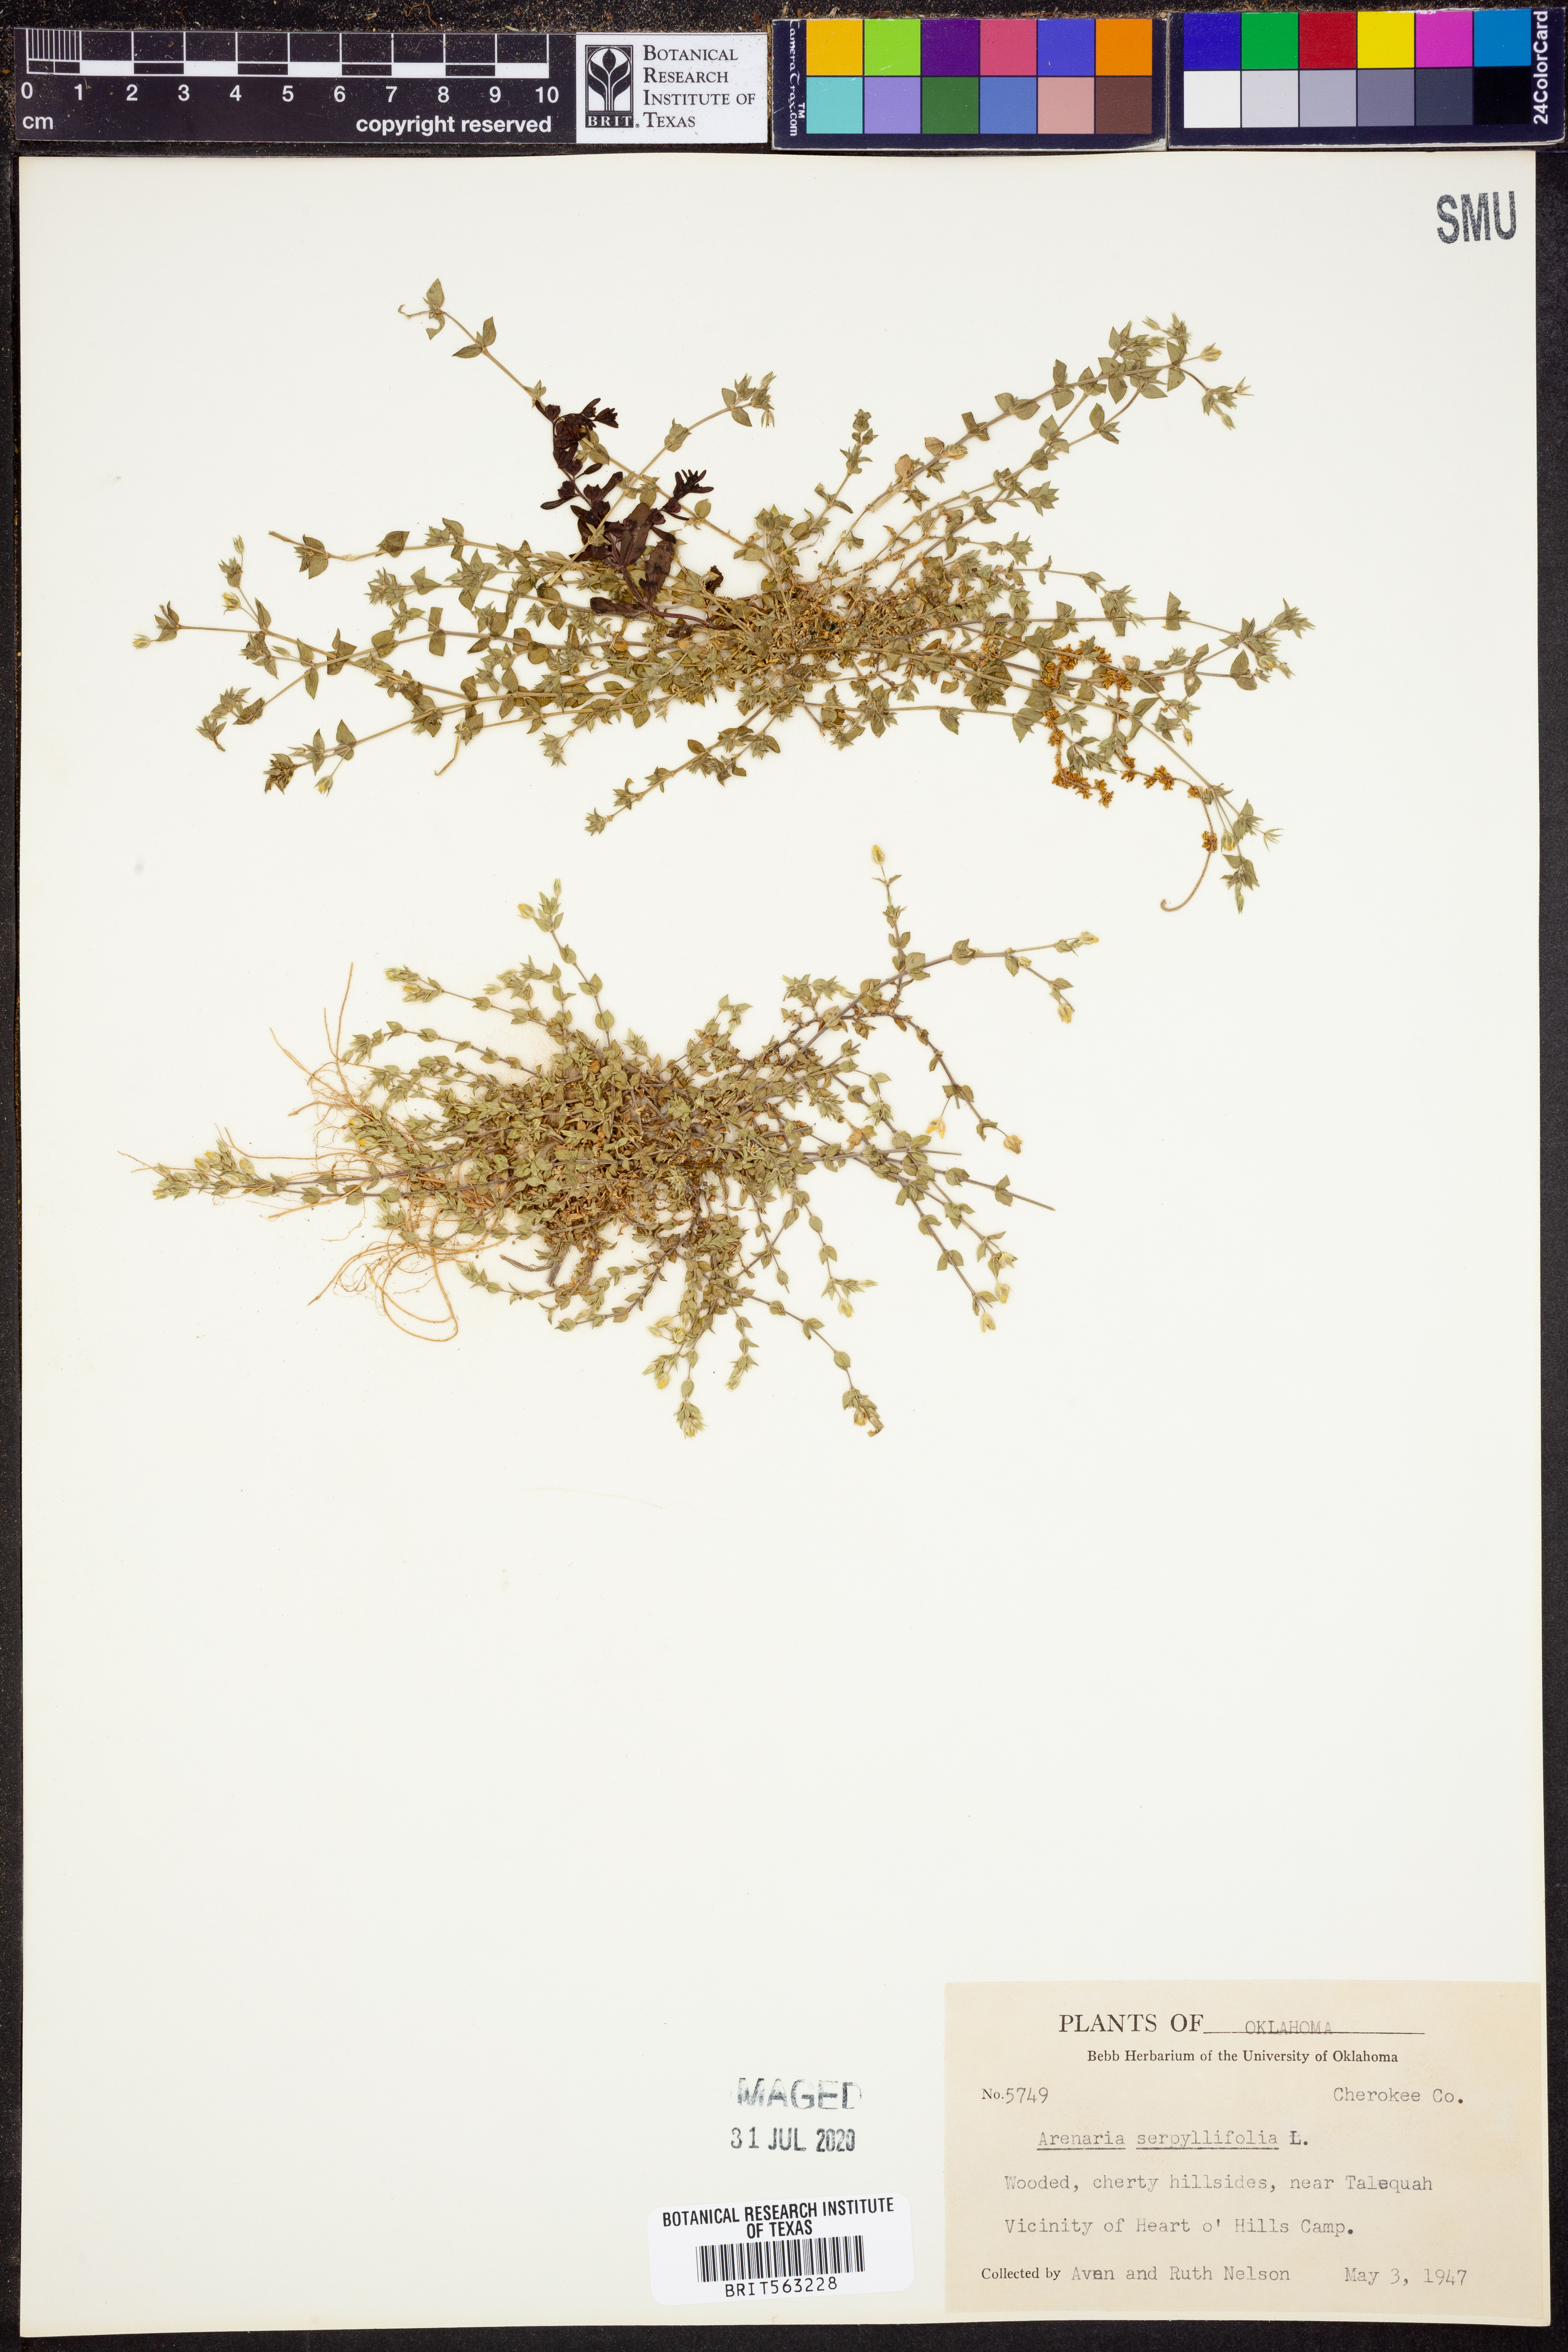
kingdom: Plantae
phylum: Tracheophyta
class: Magnoliopsida
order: Caryophyllales
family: Caryophyllaceae
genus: Arenaria
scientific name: Arenaria serpyllifolia
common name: Thyme-leaved sandwort
